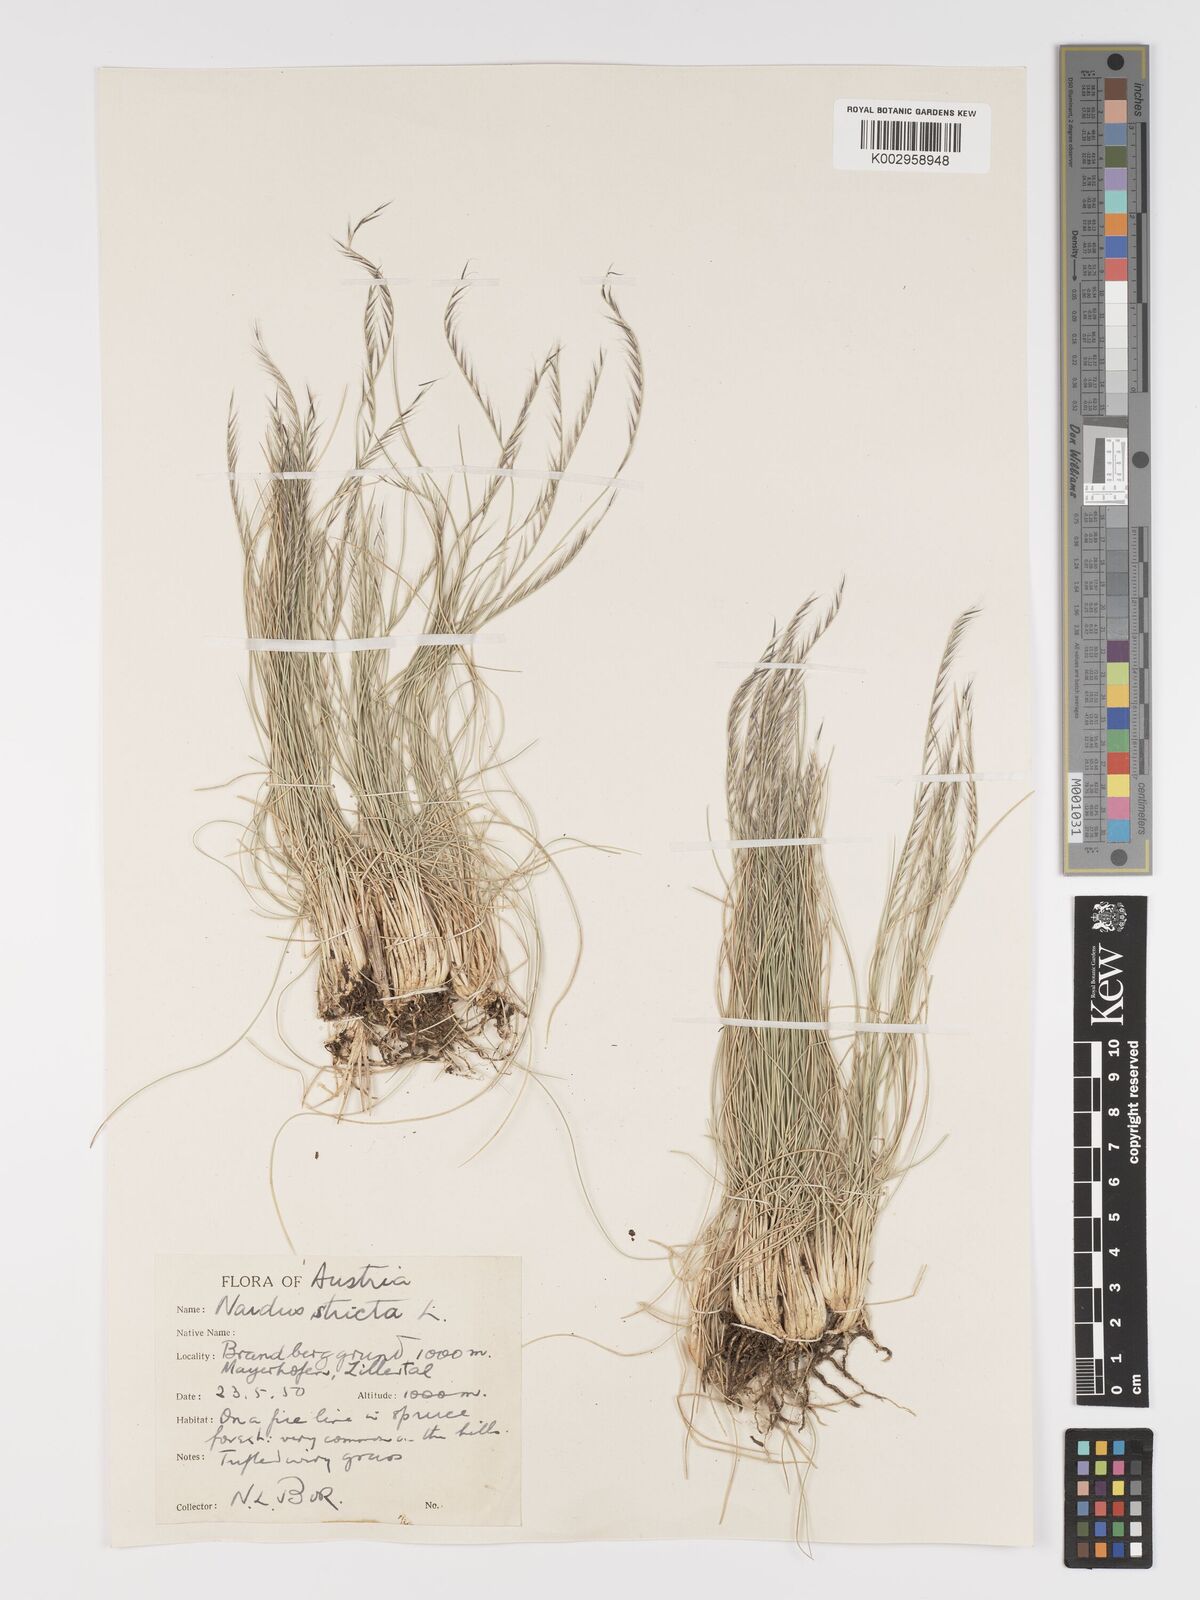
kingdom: Plantae
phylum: Tracheophyta
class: Liliopsida
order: Poales
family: Poaceae
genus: Nardus
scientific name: Nardus stricta
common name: Mat-grass
